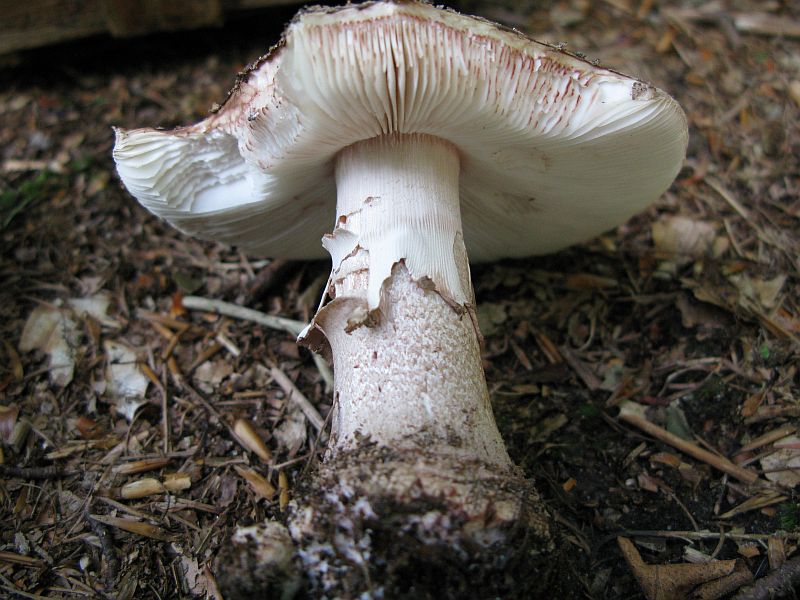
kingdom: Fungi
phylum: Basidiomycota
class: Agaricomycetes
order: Agaricales
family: Amanitaceae
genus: Amanita
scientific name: Amanita rubescens
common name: rødmende fluesvamp
